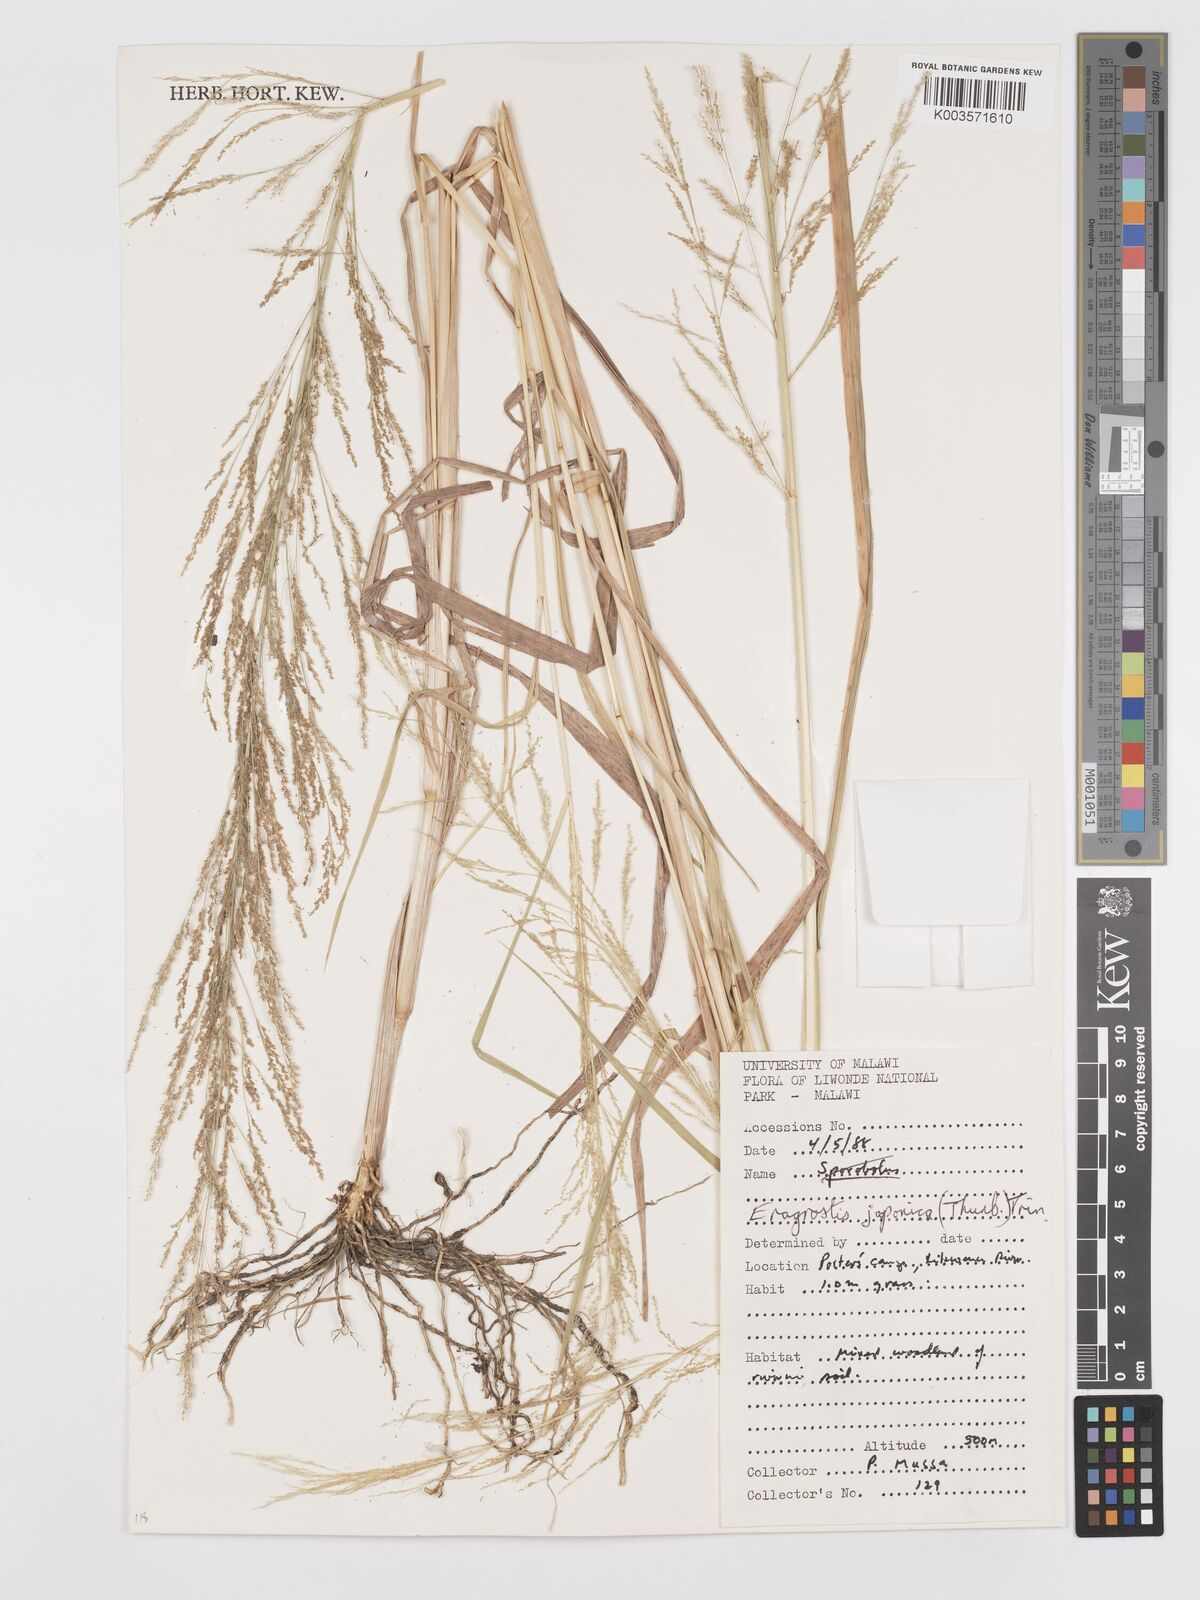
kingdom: Plantae
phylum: Tracheophyta
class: Liliopsida
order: Poales
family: Poaceae
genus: Eragrostis
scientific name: Eragrostis japonica
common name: Pond lovegrass
